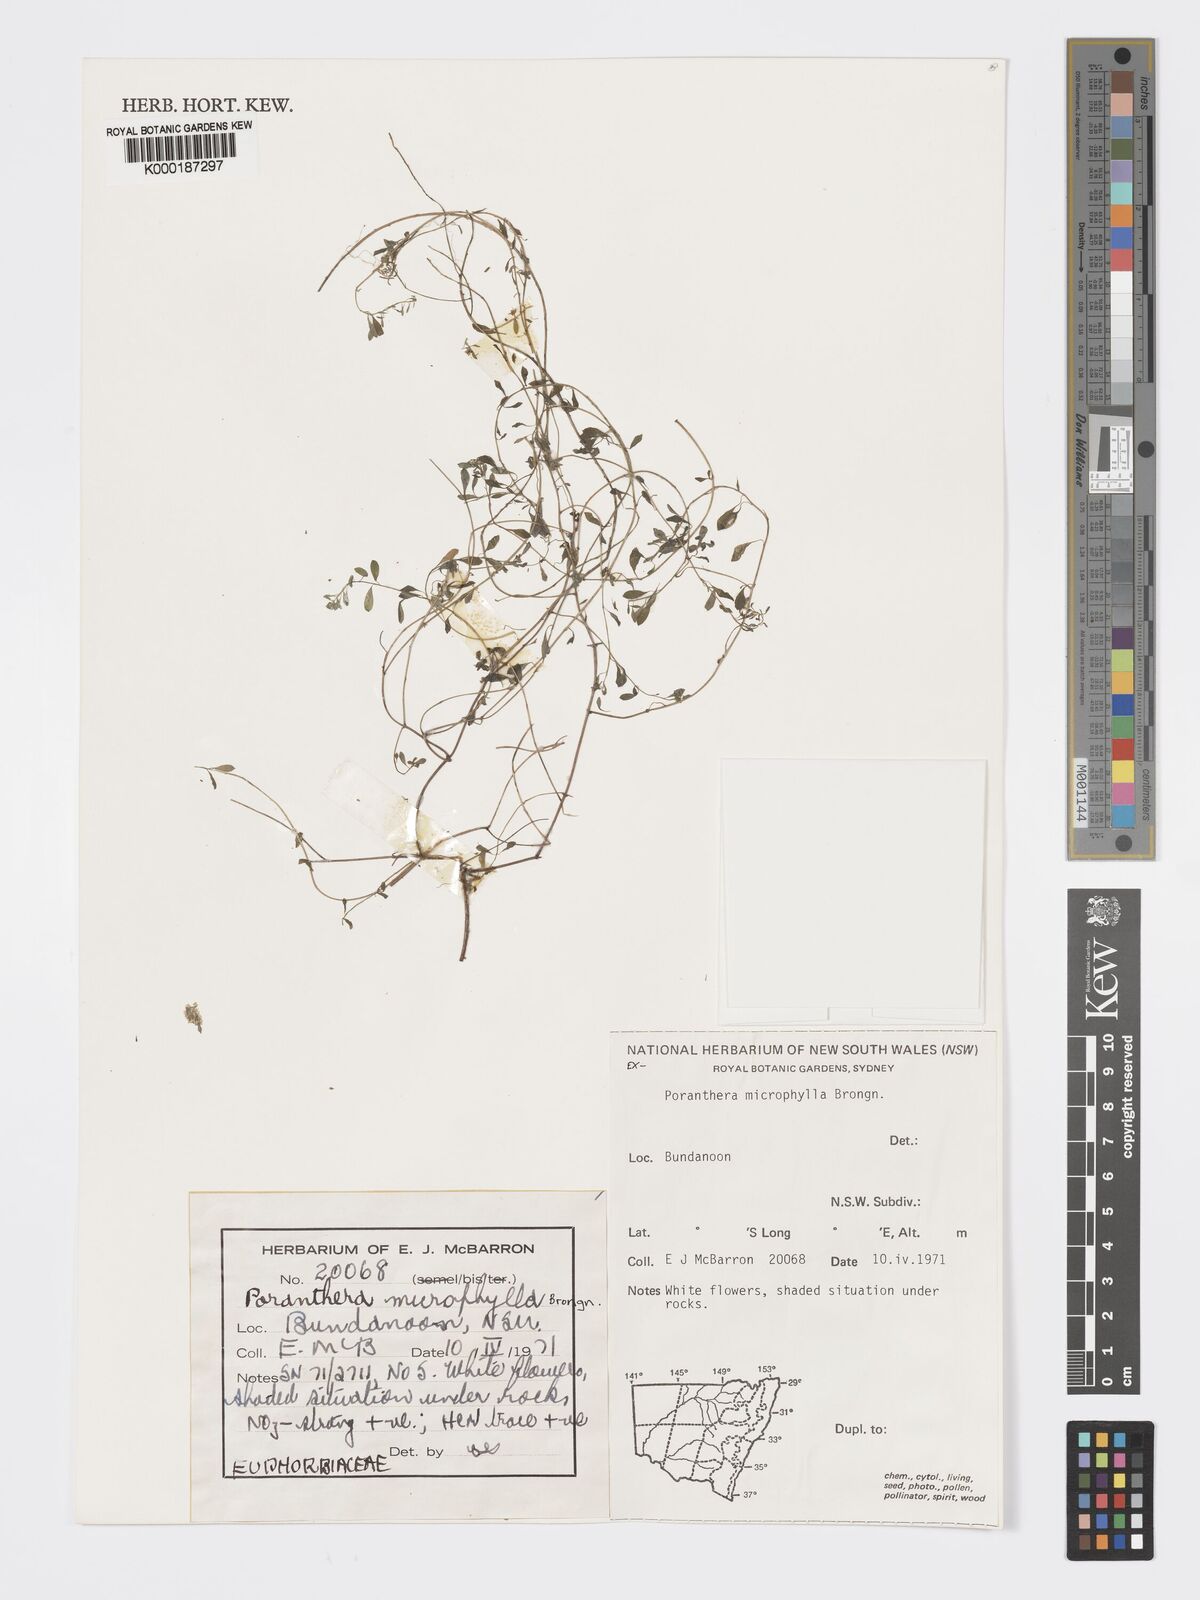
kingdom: Plantae
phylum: Tracheophyta
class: Magnoliopsida
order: Malpighiales
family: Phyllanthaceae
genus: Poranthera
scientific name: Poranthera microphylla
